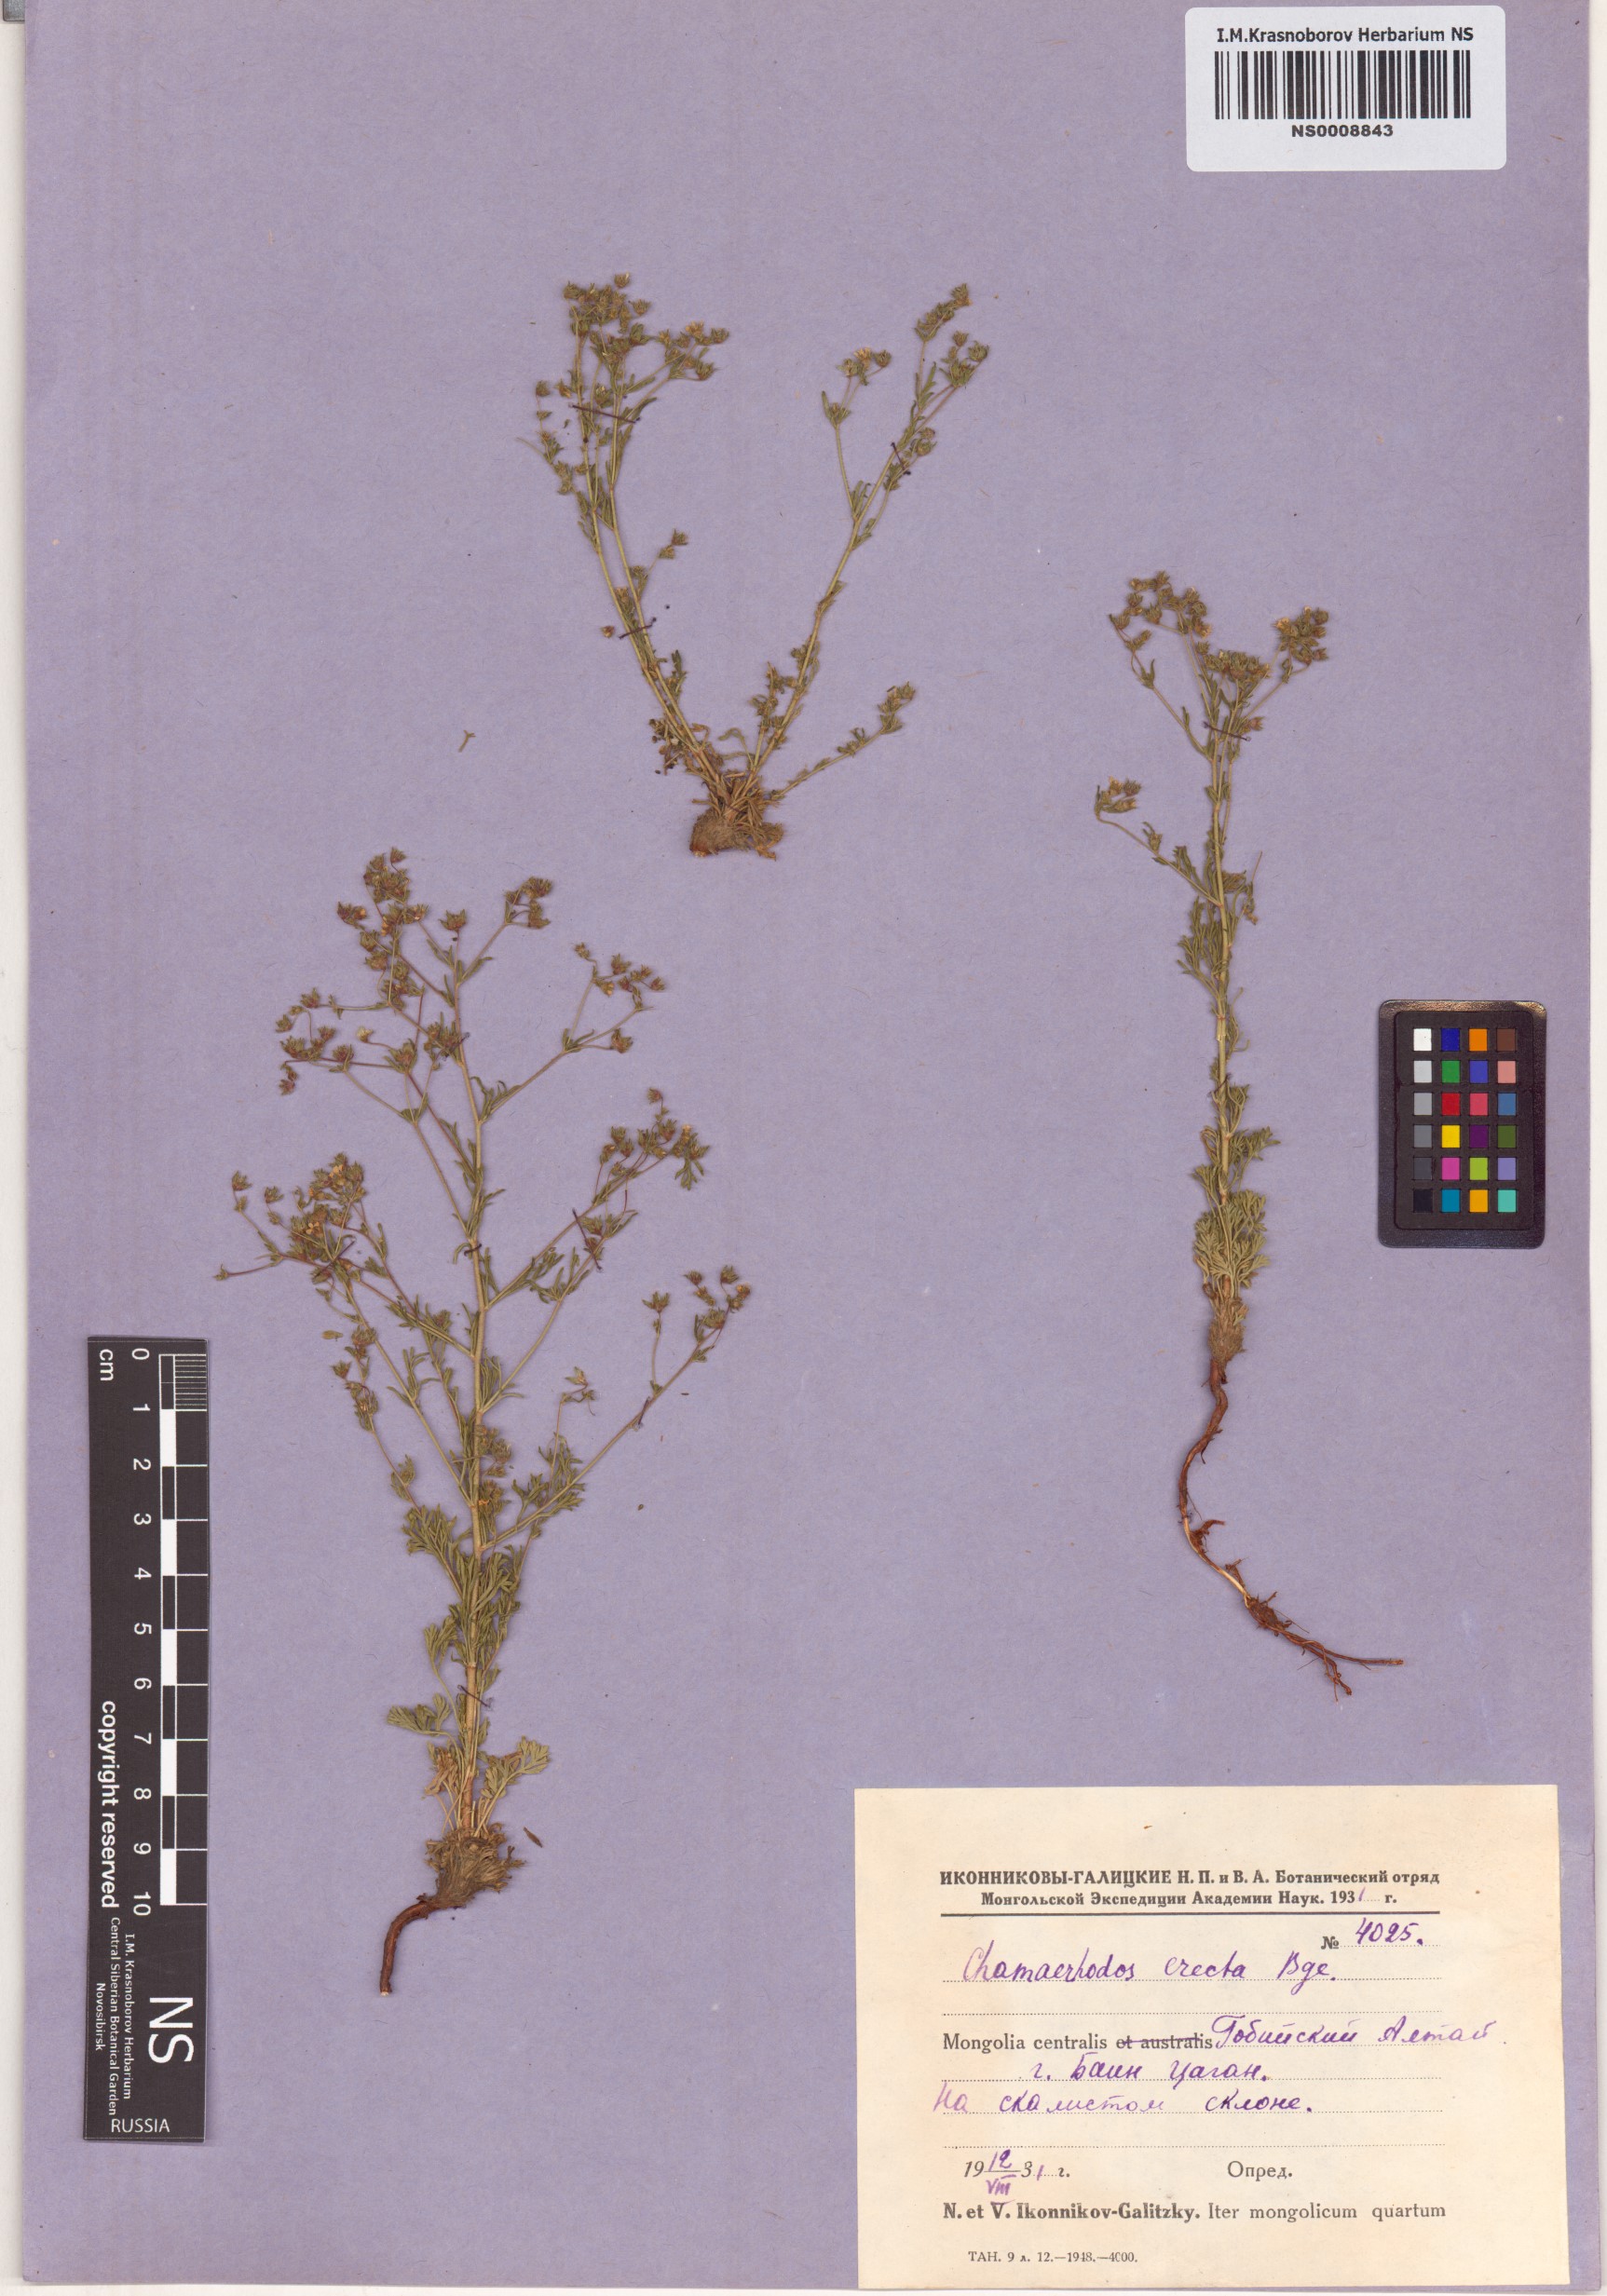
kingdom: Plantae
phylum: Tracheophyta
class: Magnoliopsida
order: Rosales
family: Rosaceae
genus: Chamaerhodos
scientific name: Chamaerhodos erecta
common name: American chamaerhodos
